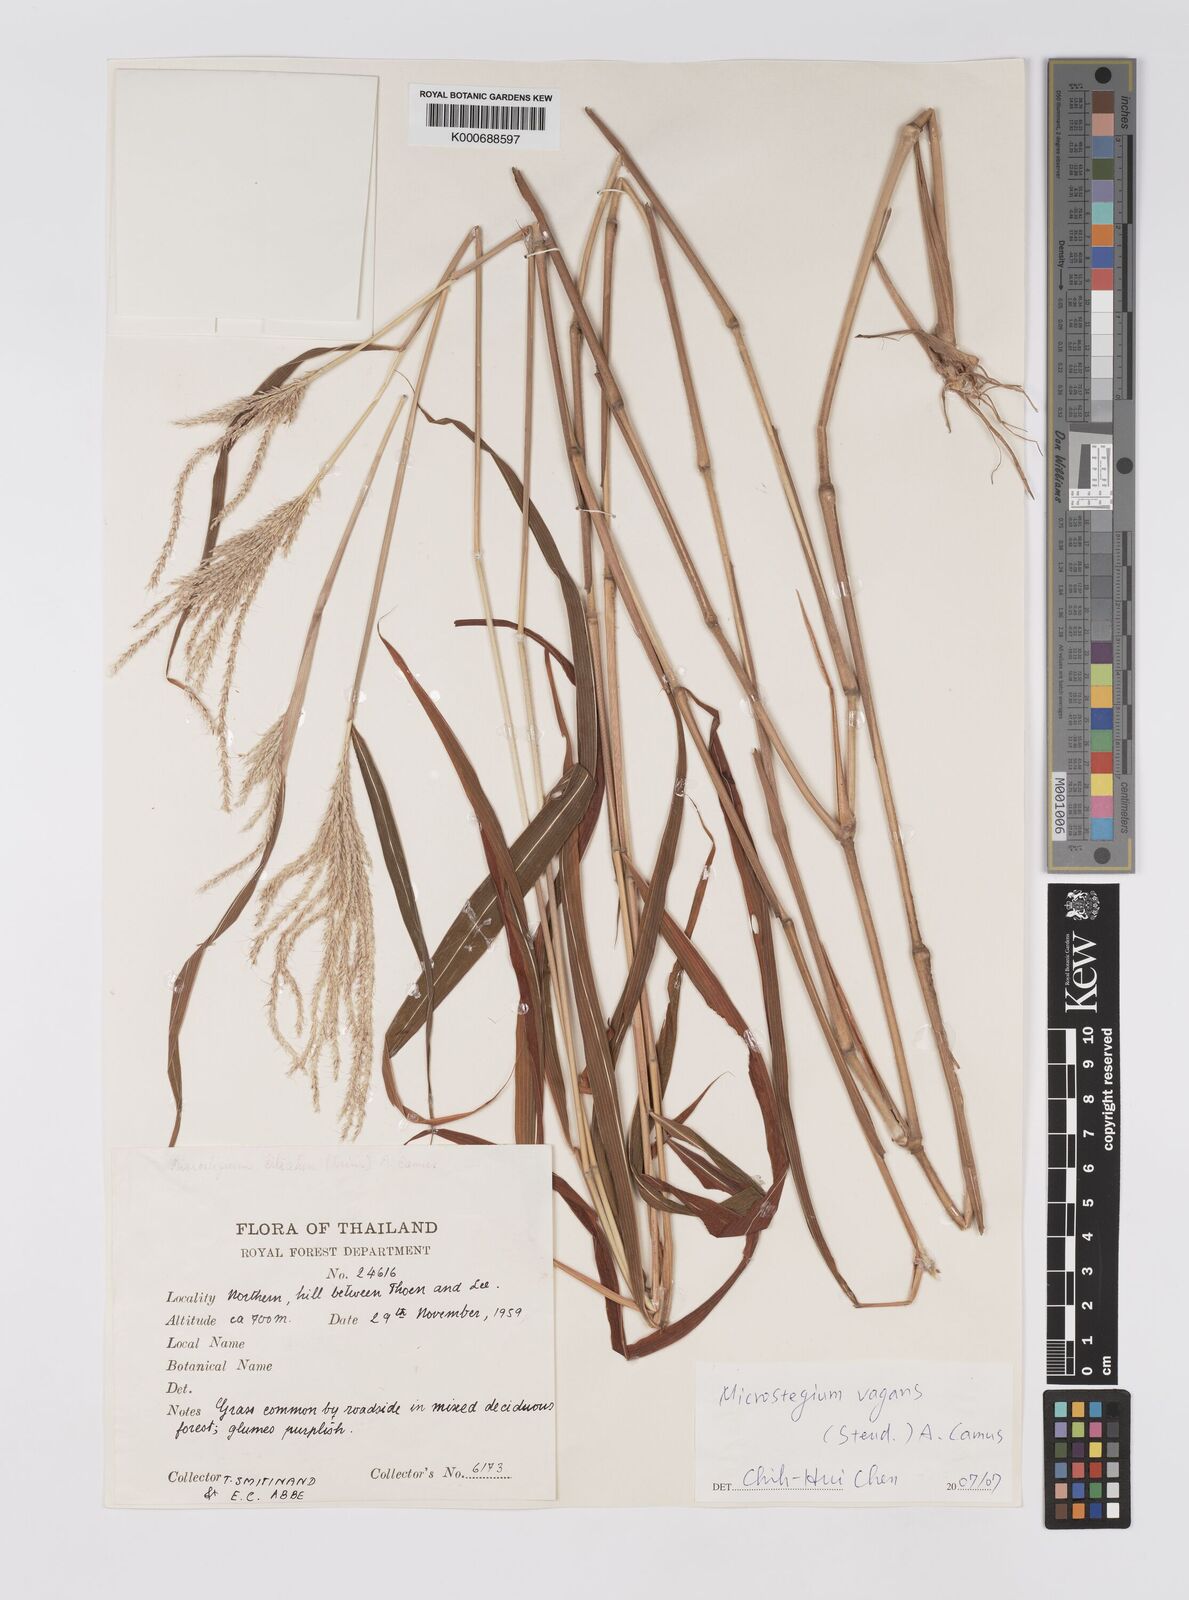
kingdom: Plantae
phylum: Tracheophyta
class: Liliopsida
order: Poales
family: Poaceae
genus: Microstegium
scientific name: Microstegium fasciculatum
